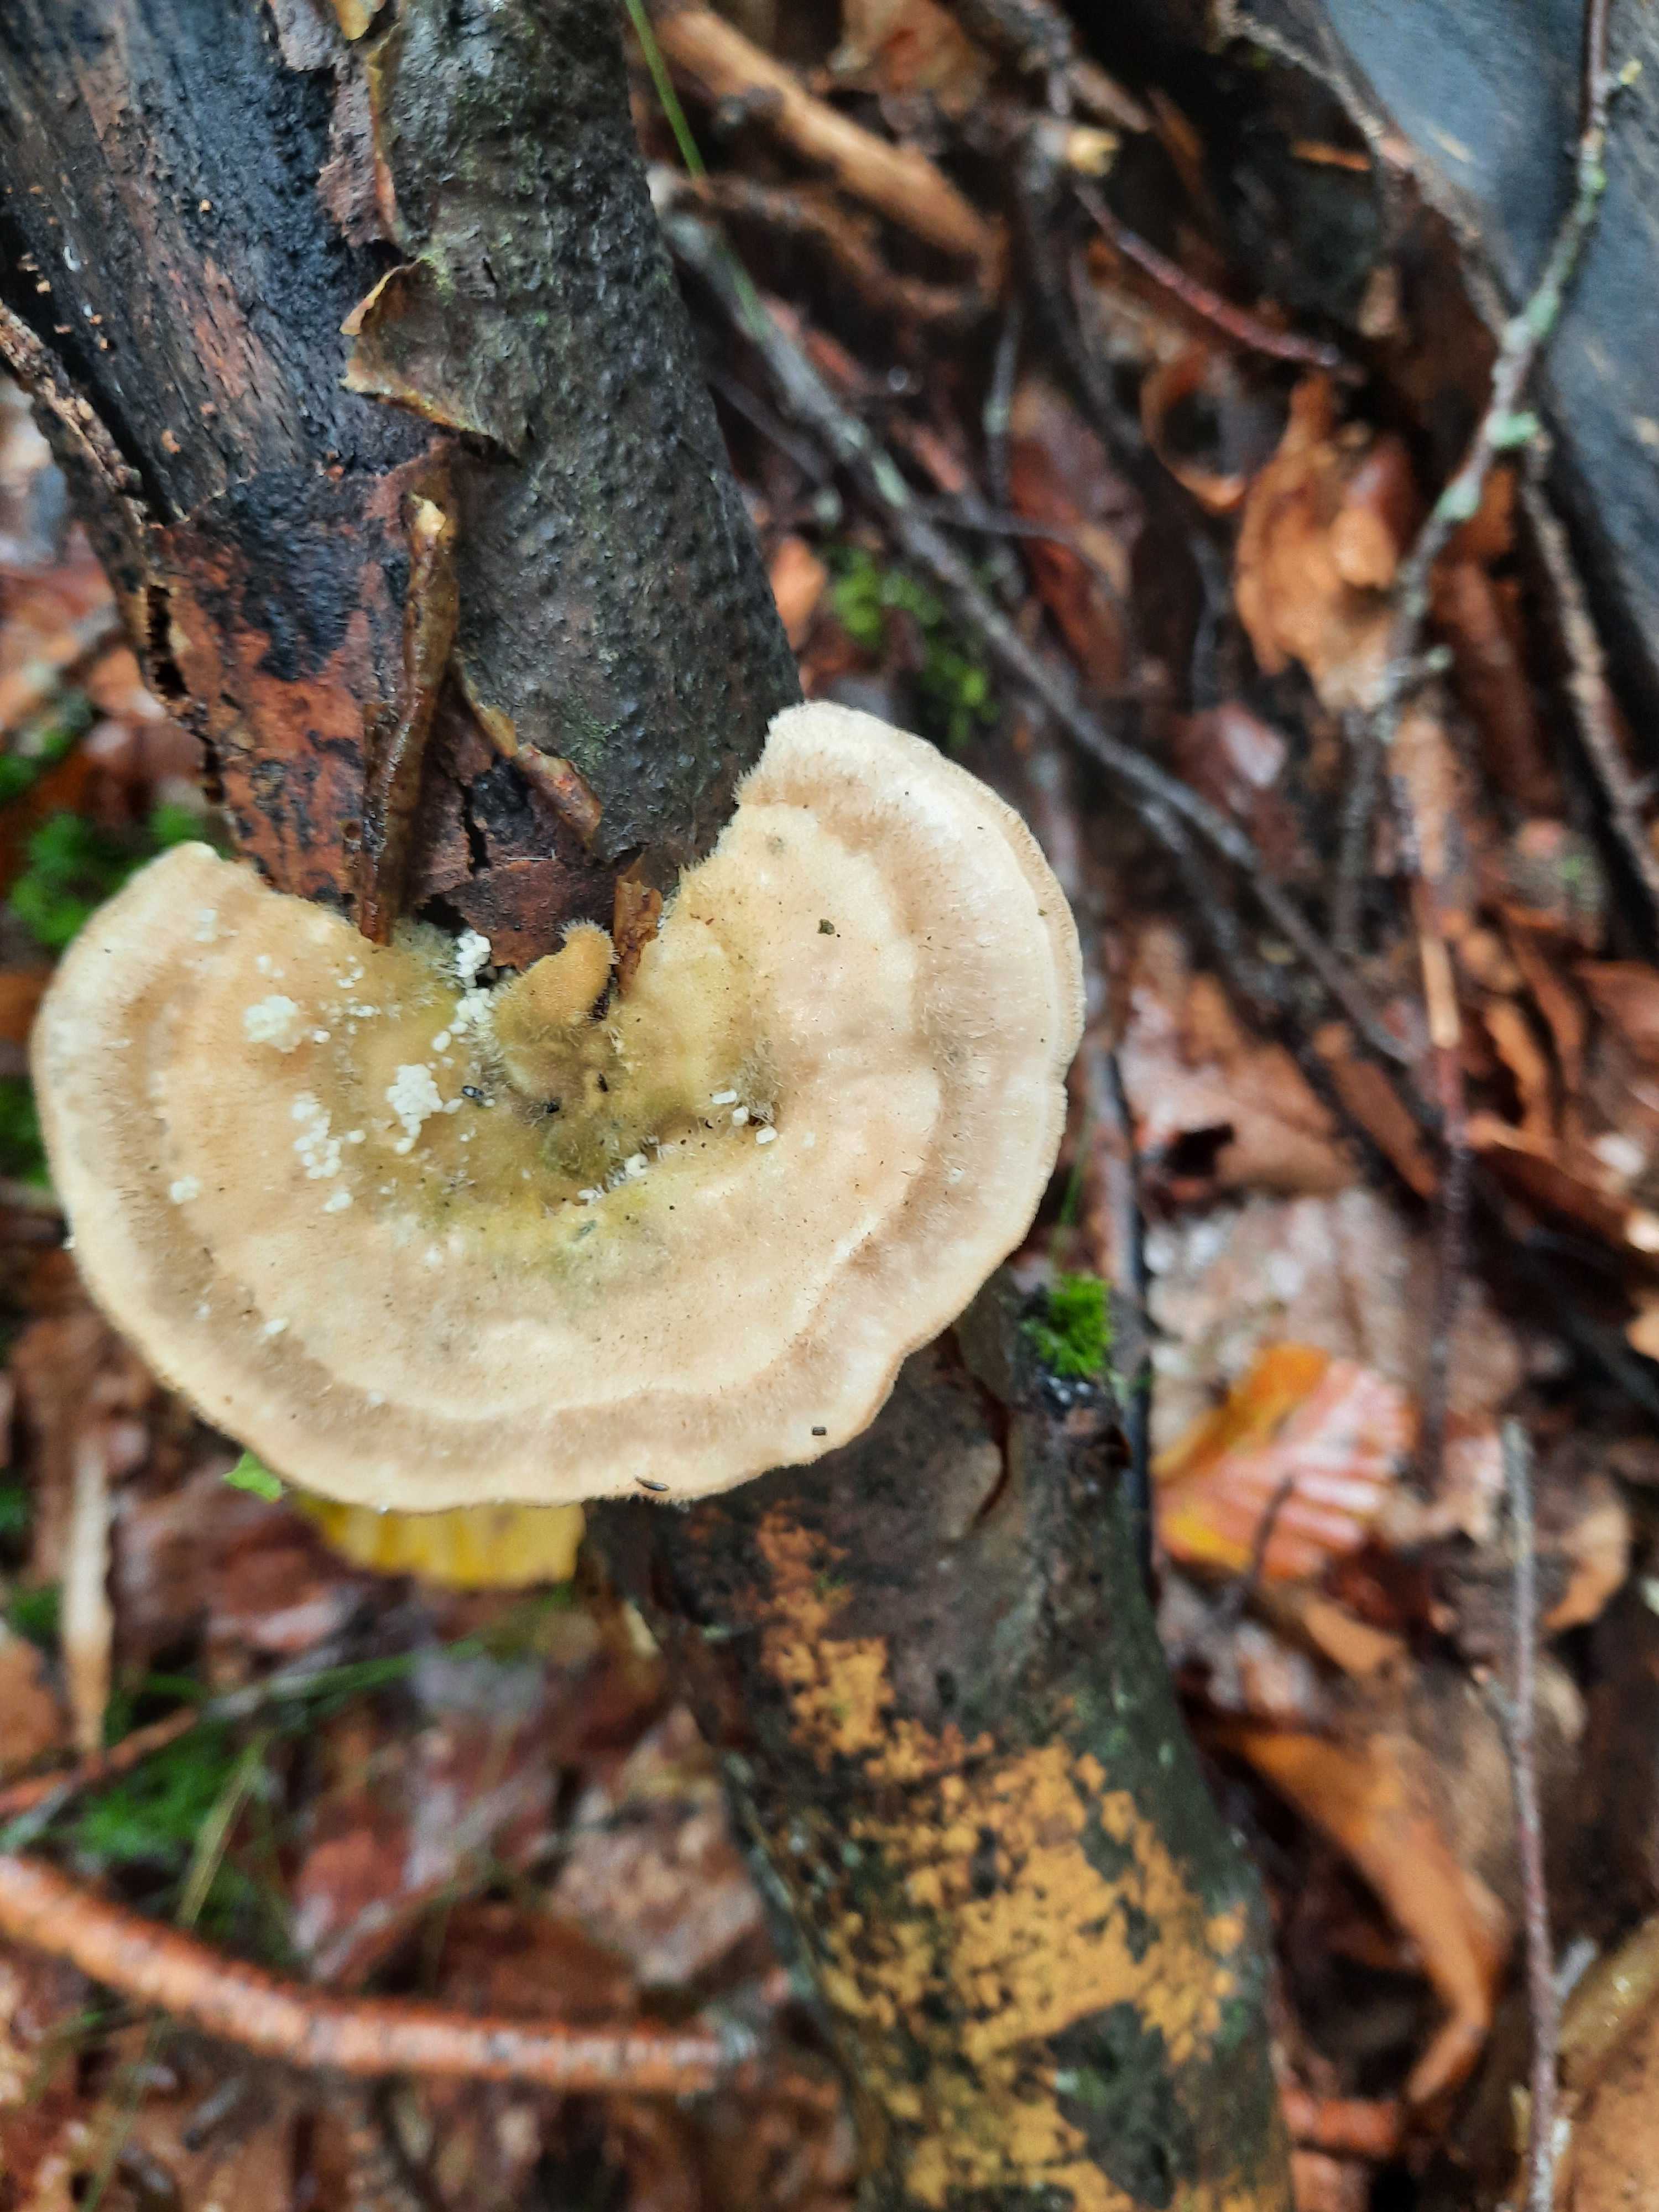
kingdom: Fungi
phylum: Basidiomycota
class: Agaricomycetes
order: Polyporales
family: Polyporaceae
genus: Trametes
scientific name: Trametes hirsuta
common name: håret læderporesvamp
